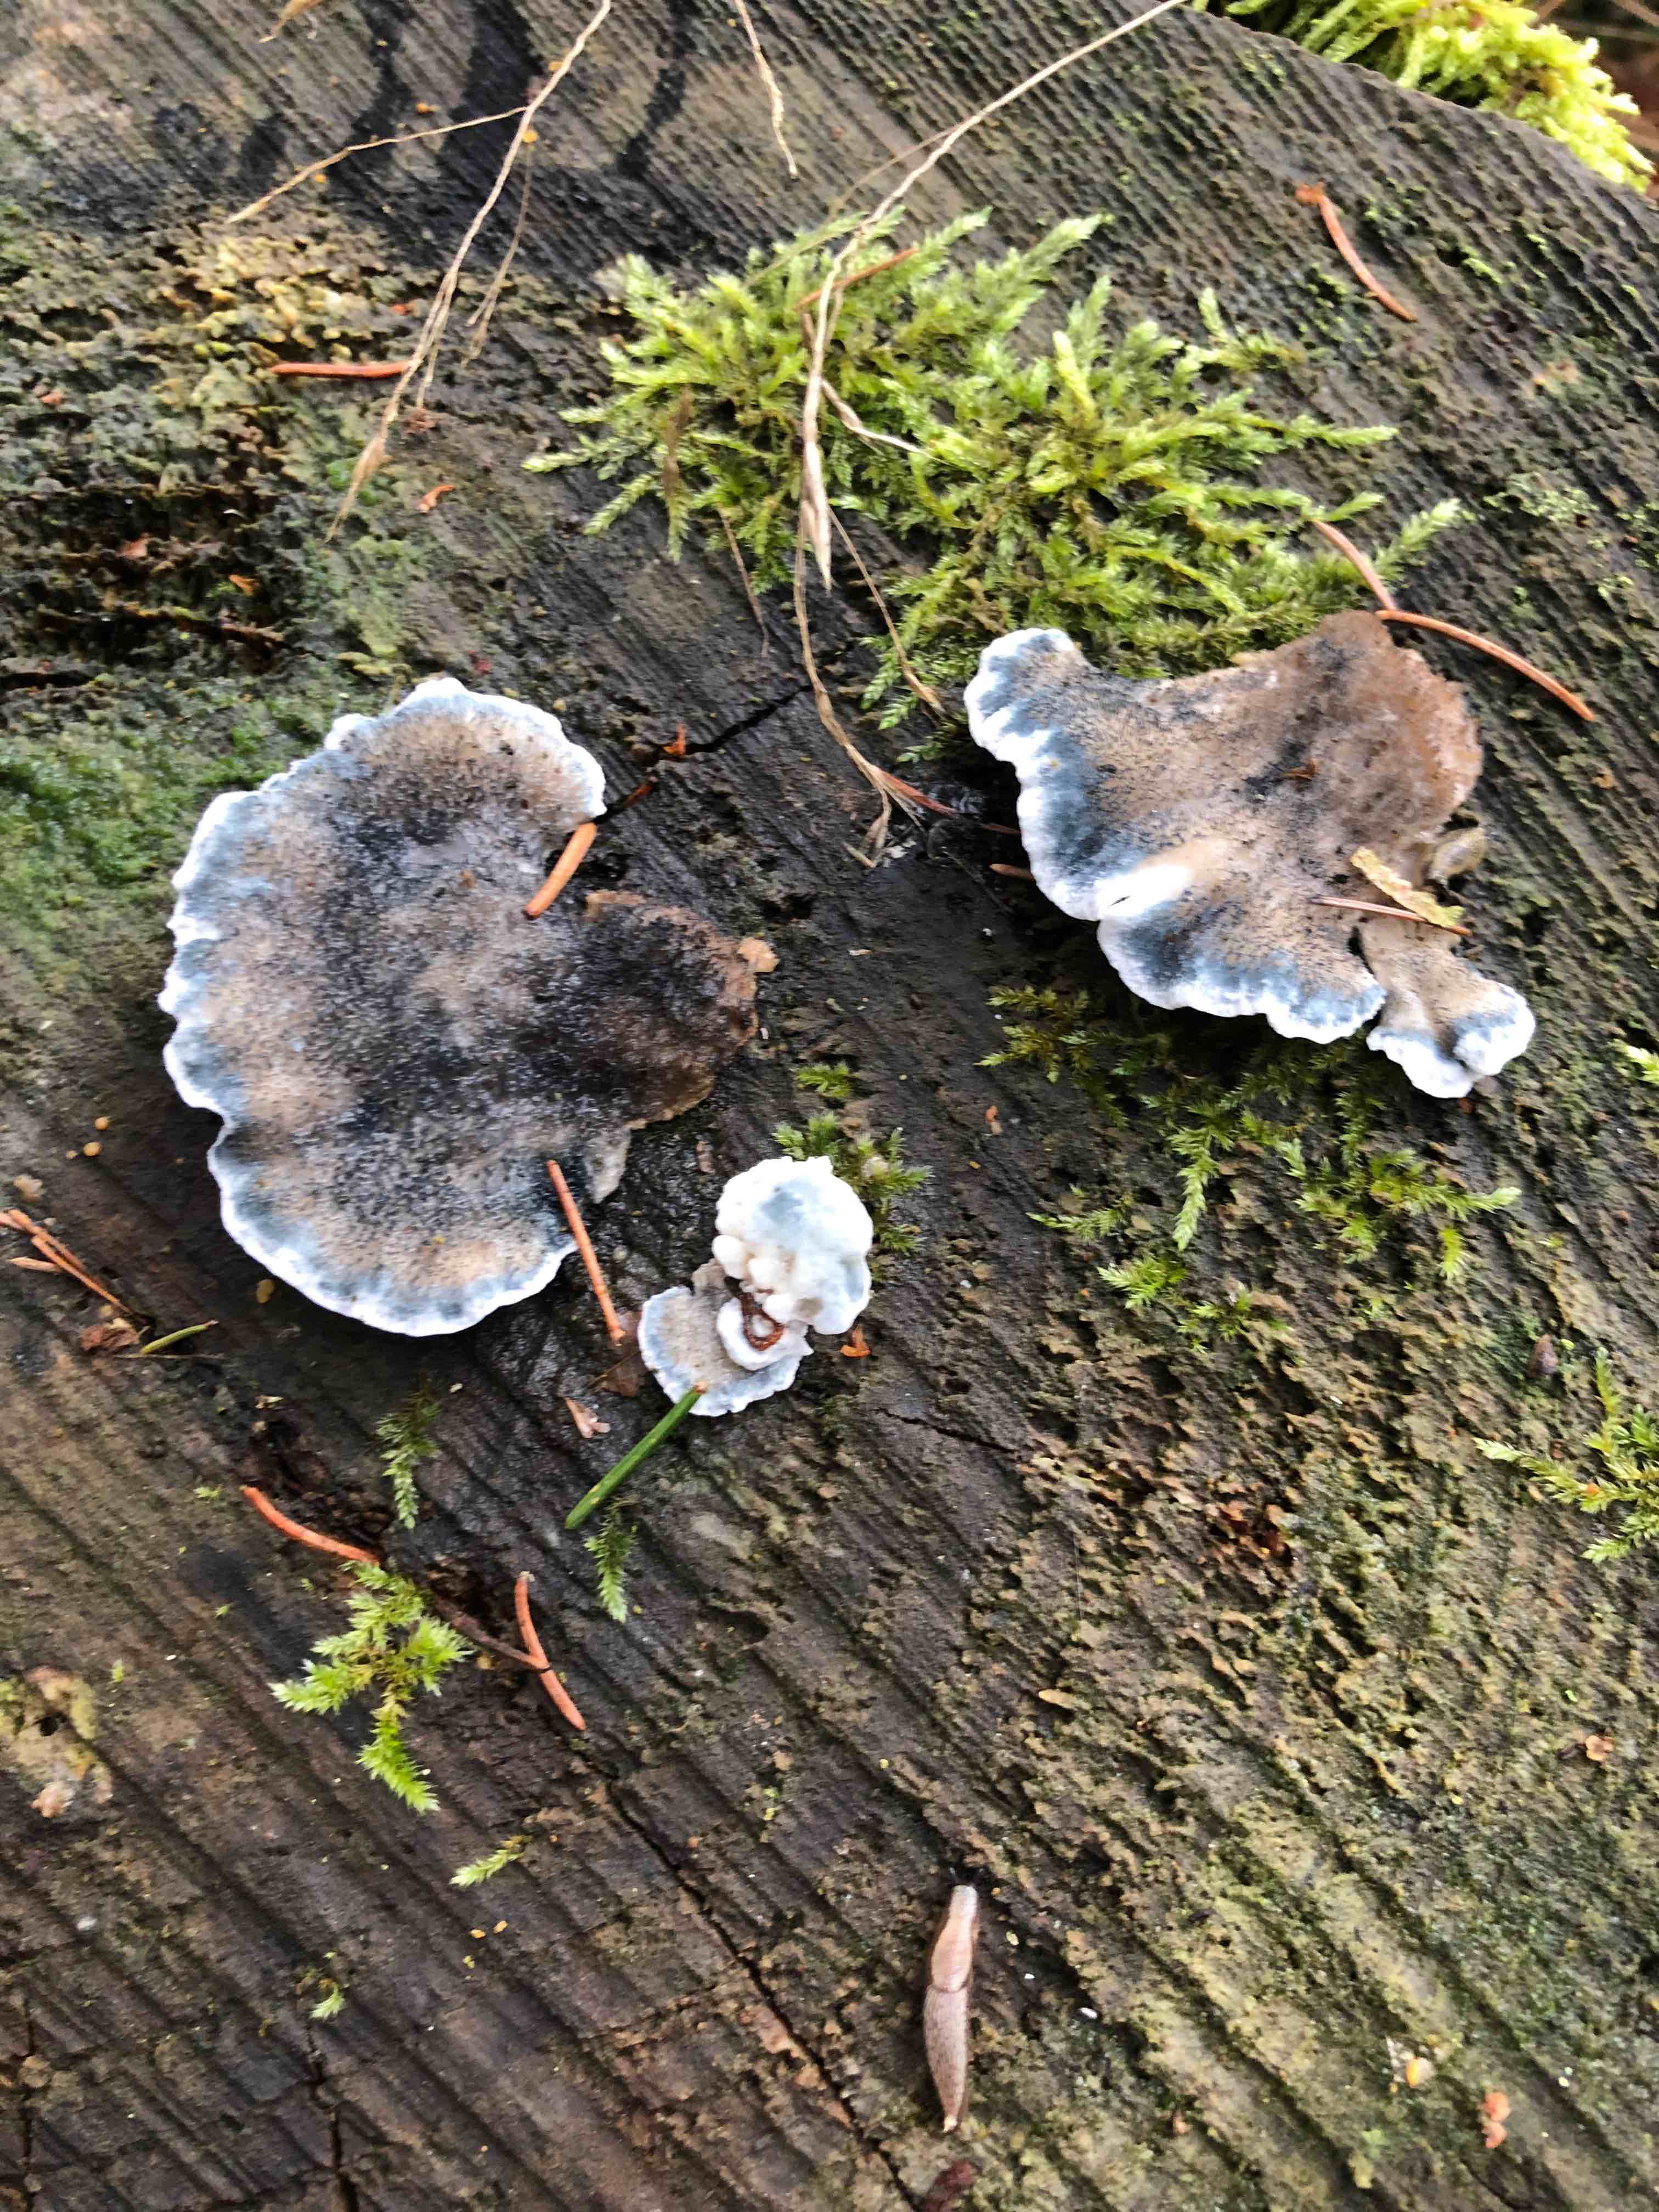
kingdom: Fungi
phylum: Basidiomycota
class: Agaricomycetes
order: Polyporales
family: Polyporaceae
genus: Cyanosporus
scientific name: Cyanosporus caesius
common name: blålig kødporesvamp
